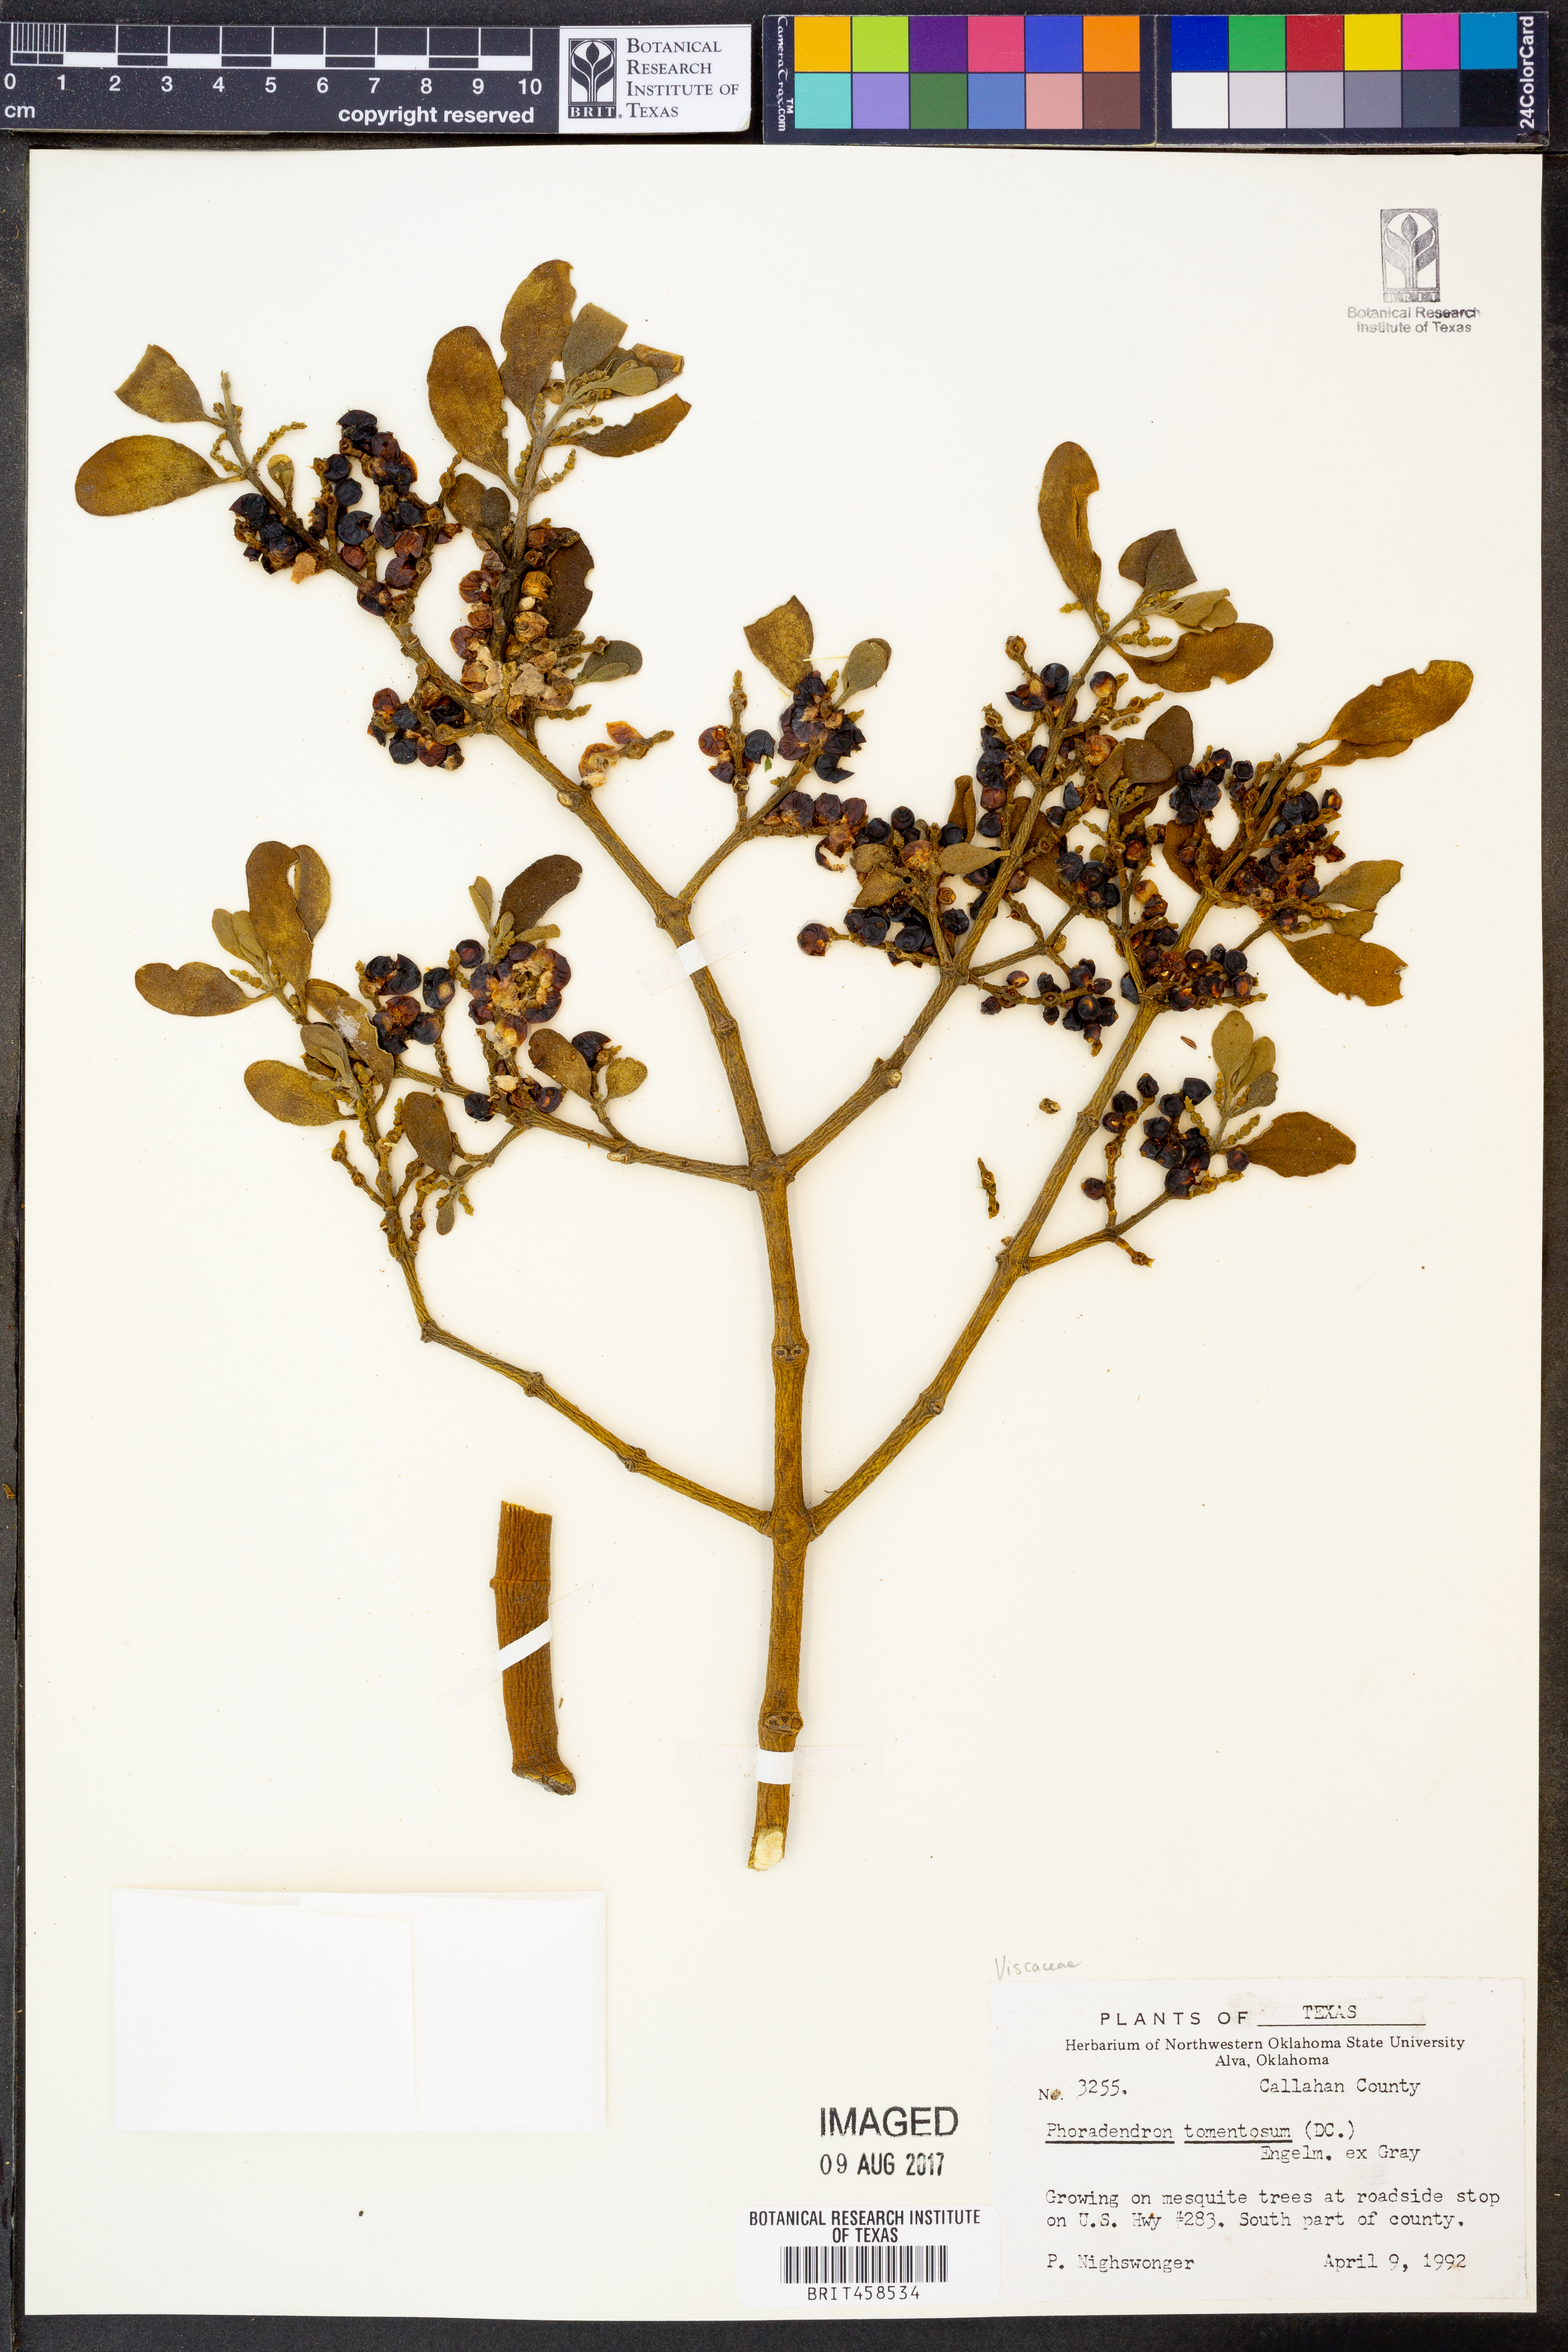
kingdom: Plantae
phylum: Tracheophyta
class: Magnoliopsida
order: Santalales
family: Viscaceae
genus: Phoradendron
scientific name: Phoradendron leucarpum
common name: Pacific mistletoe
